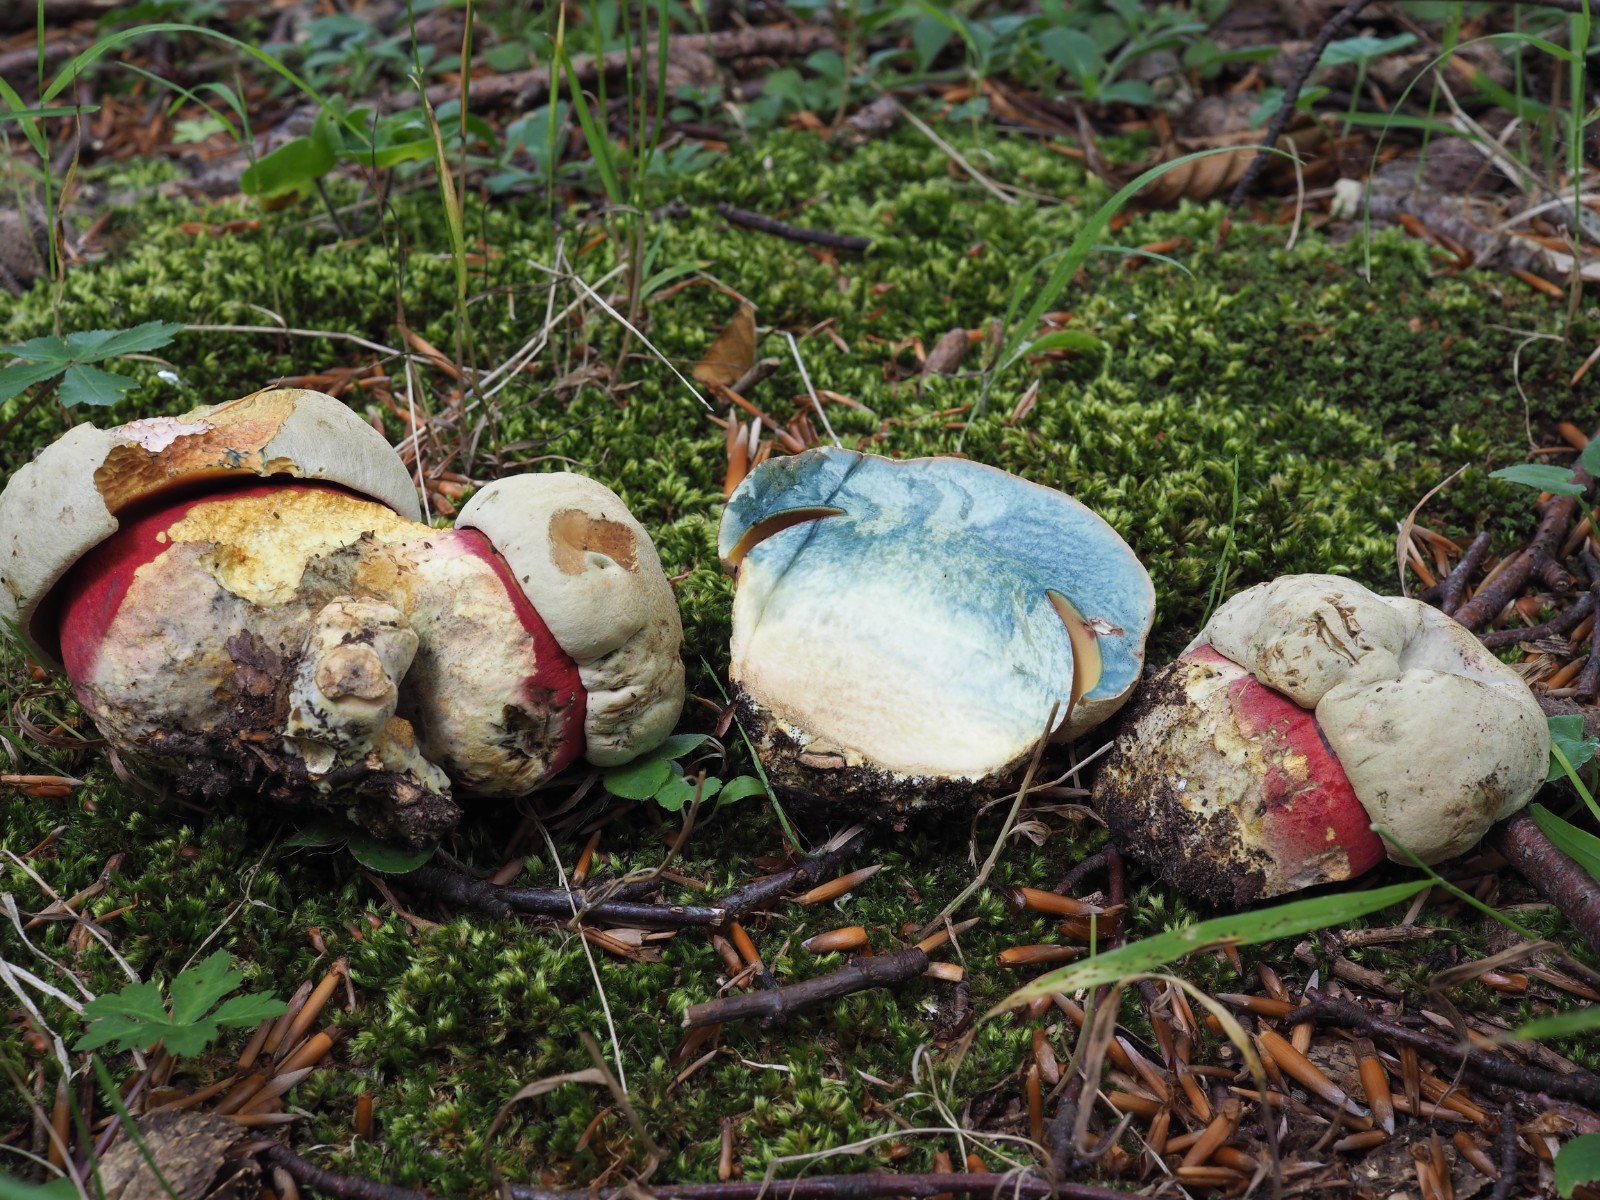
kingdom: Fungi
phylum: Basidiomycota
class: Agaricomycetes
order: Boletales
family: Boletaceae
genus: Rubroboletus
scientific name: Rubroboletus satanas
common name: Satans rørhat
